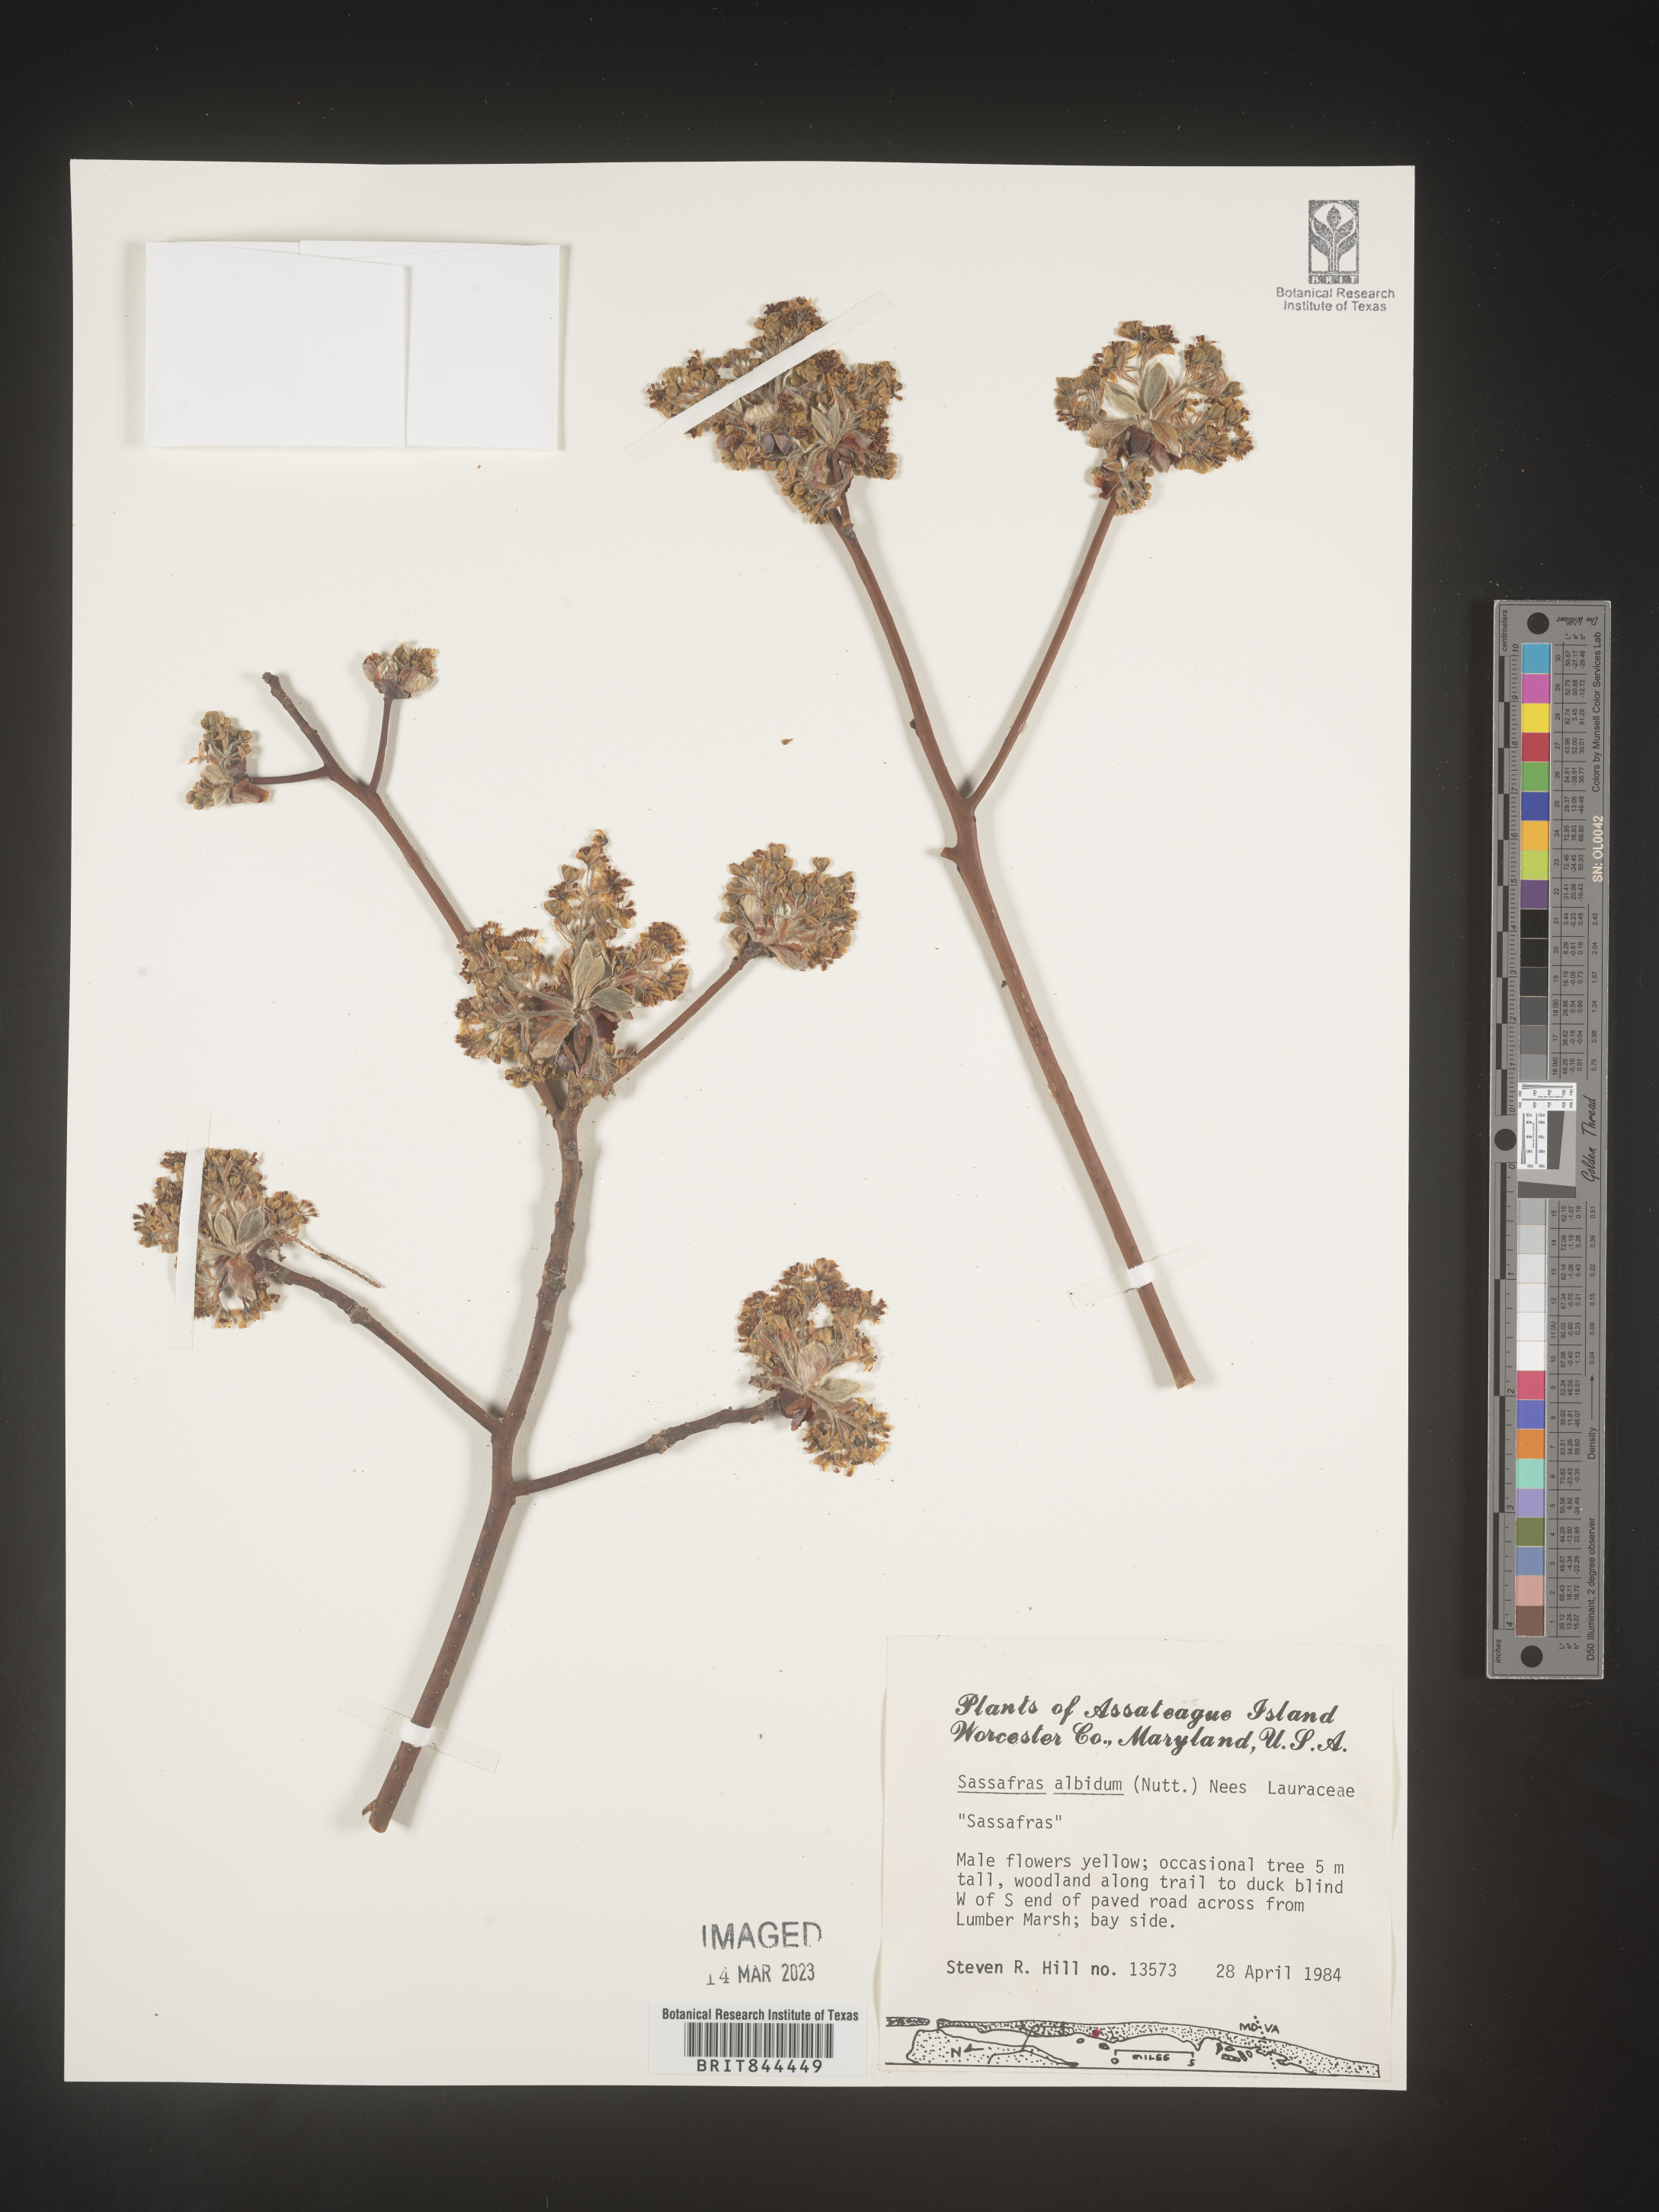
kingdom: Plantae
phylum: Tracheophyta
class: Magnoliopsida
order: Laurales
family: Lauraceae
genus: Sassafras
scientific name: Sassafras albidum
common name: Sassafras
